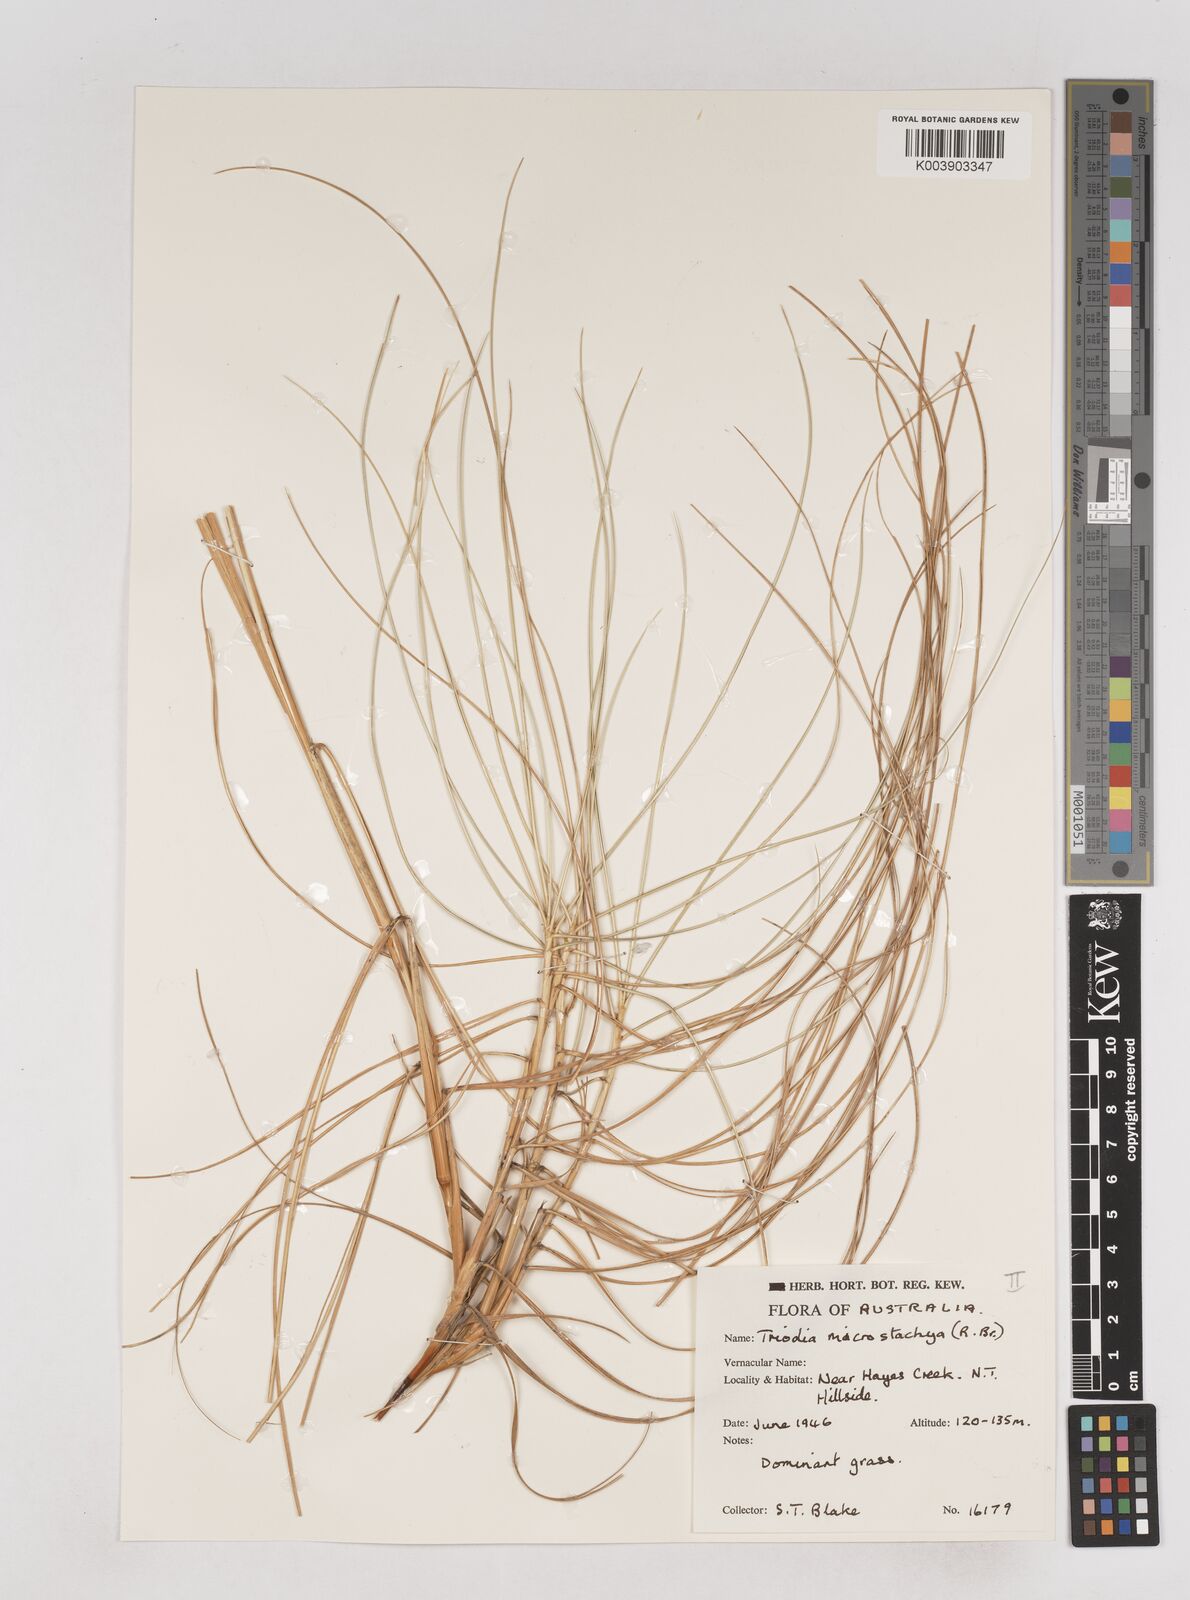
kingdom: Plantae
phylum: Tracheophyta
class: Liliopsida
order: Poales
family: Poaceae
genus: Triodia
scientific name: Triodia microstachya
